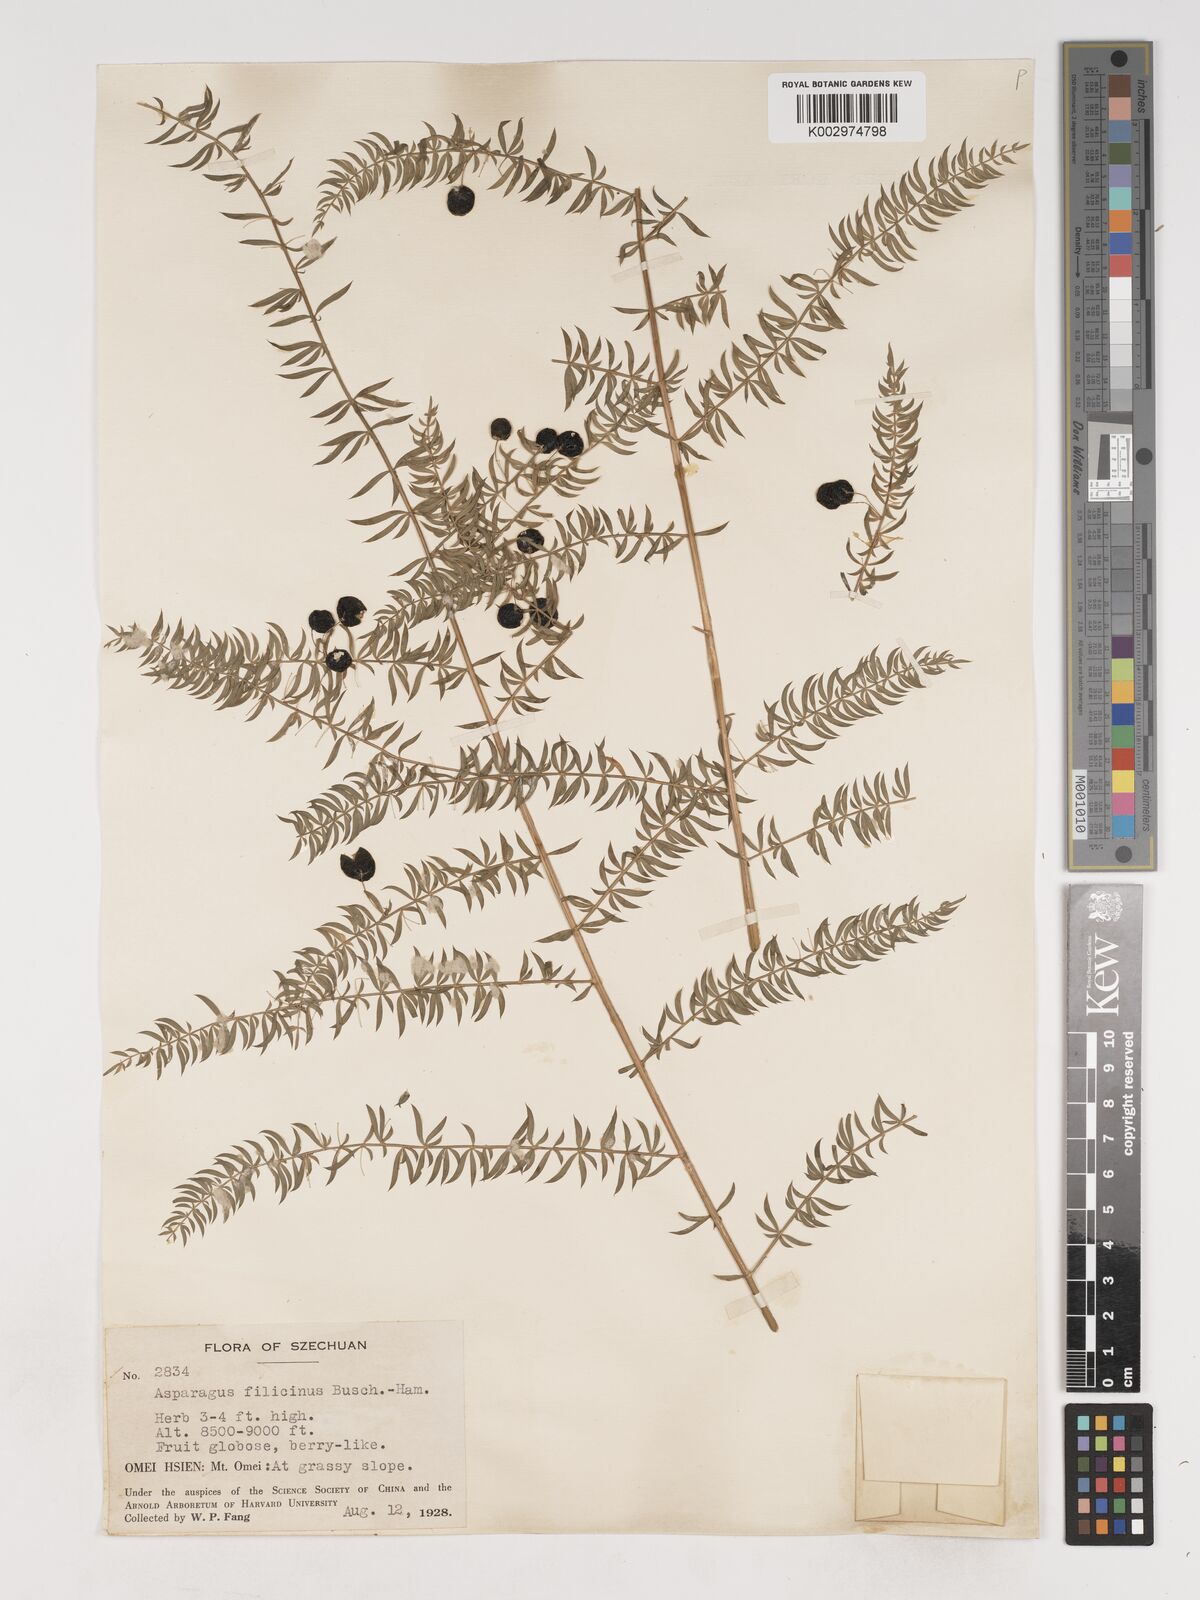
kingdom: Plantae
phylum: Tracheophyta
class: Liliopsida
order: Asparagales
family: Asparagaceae
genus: Asparagus
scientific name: Asparagus filicinus
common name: Fern asparagus
